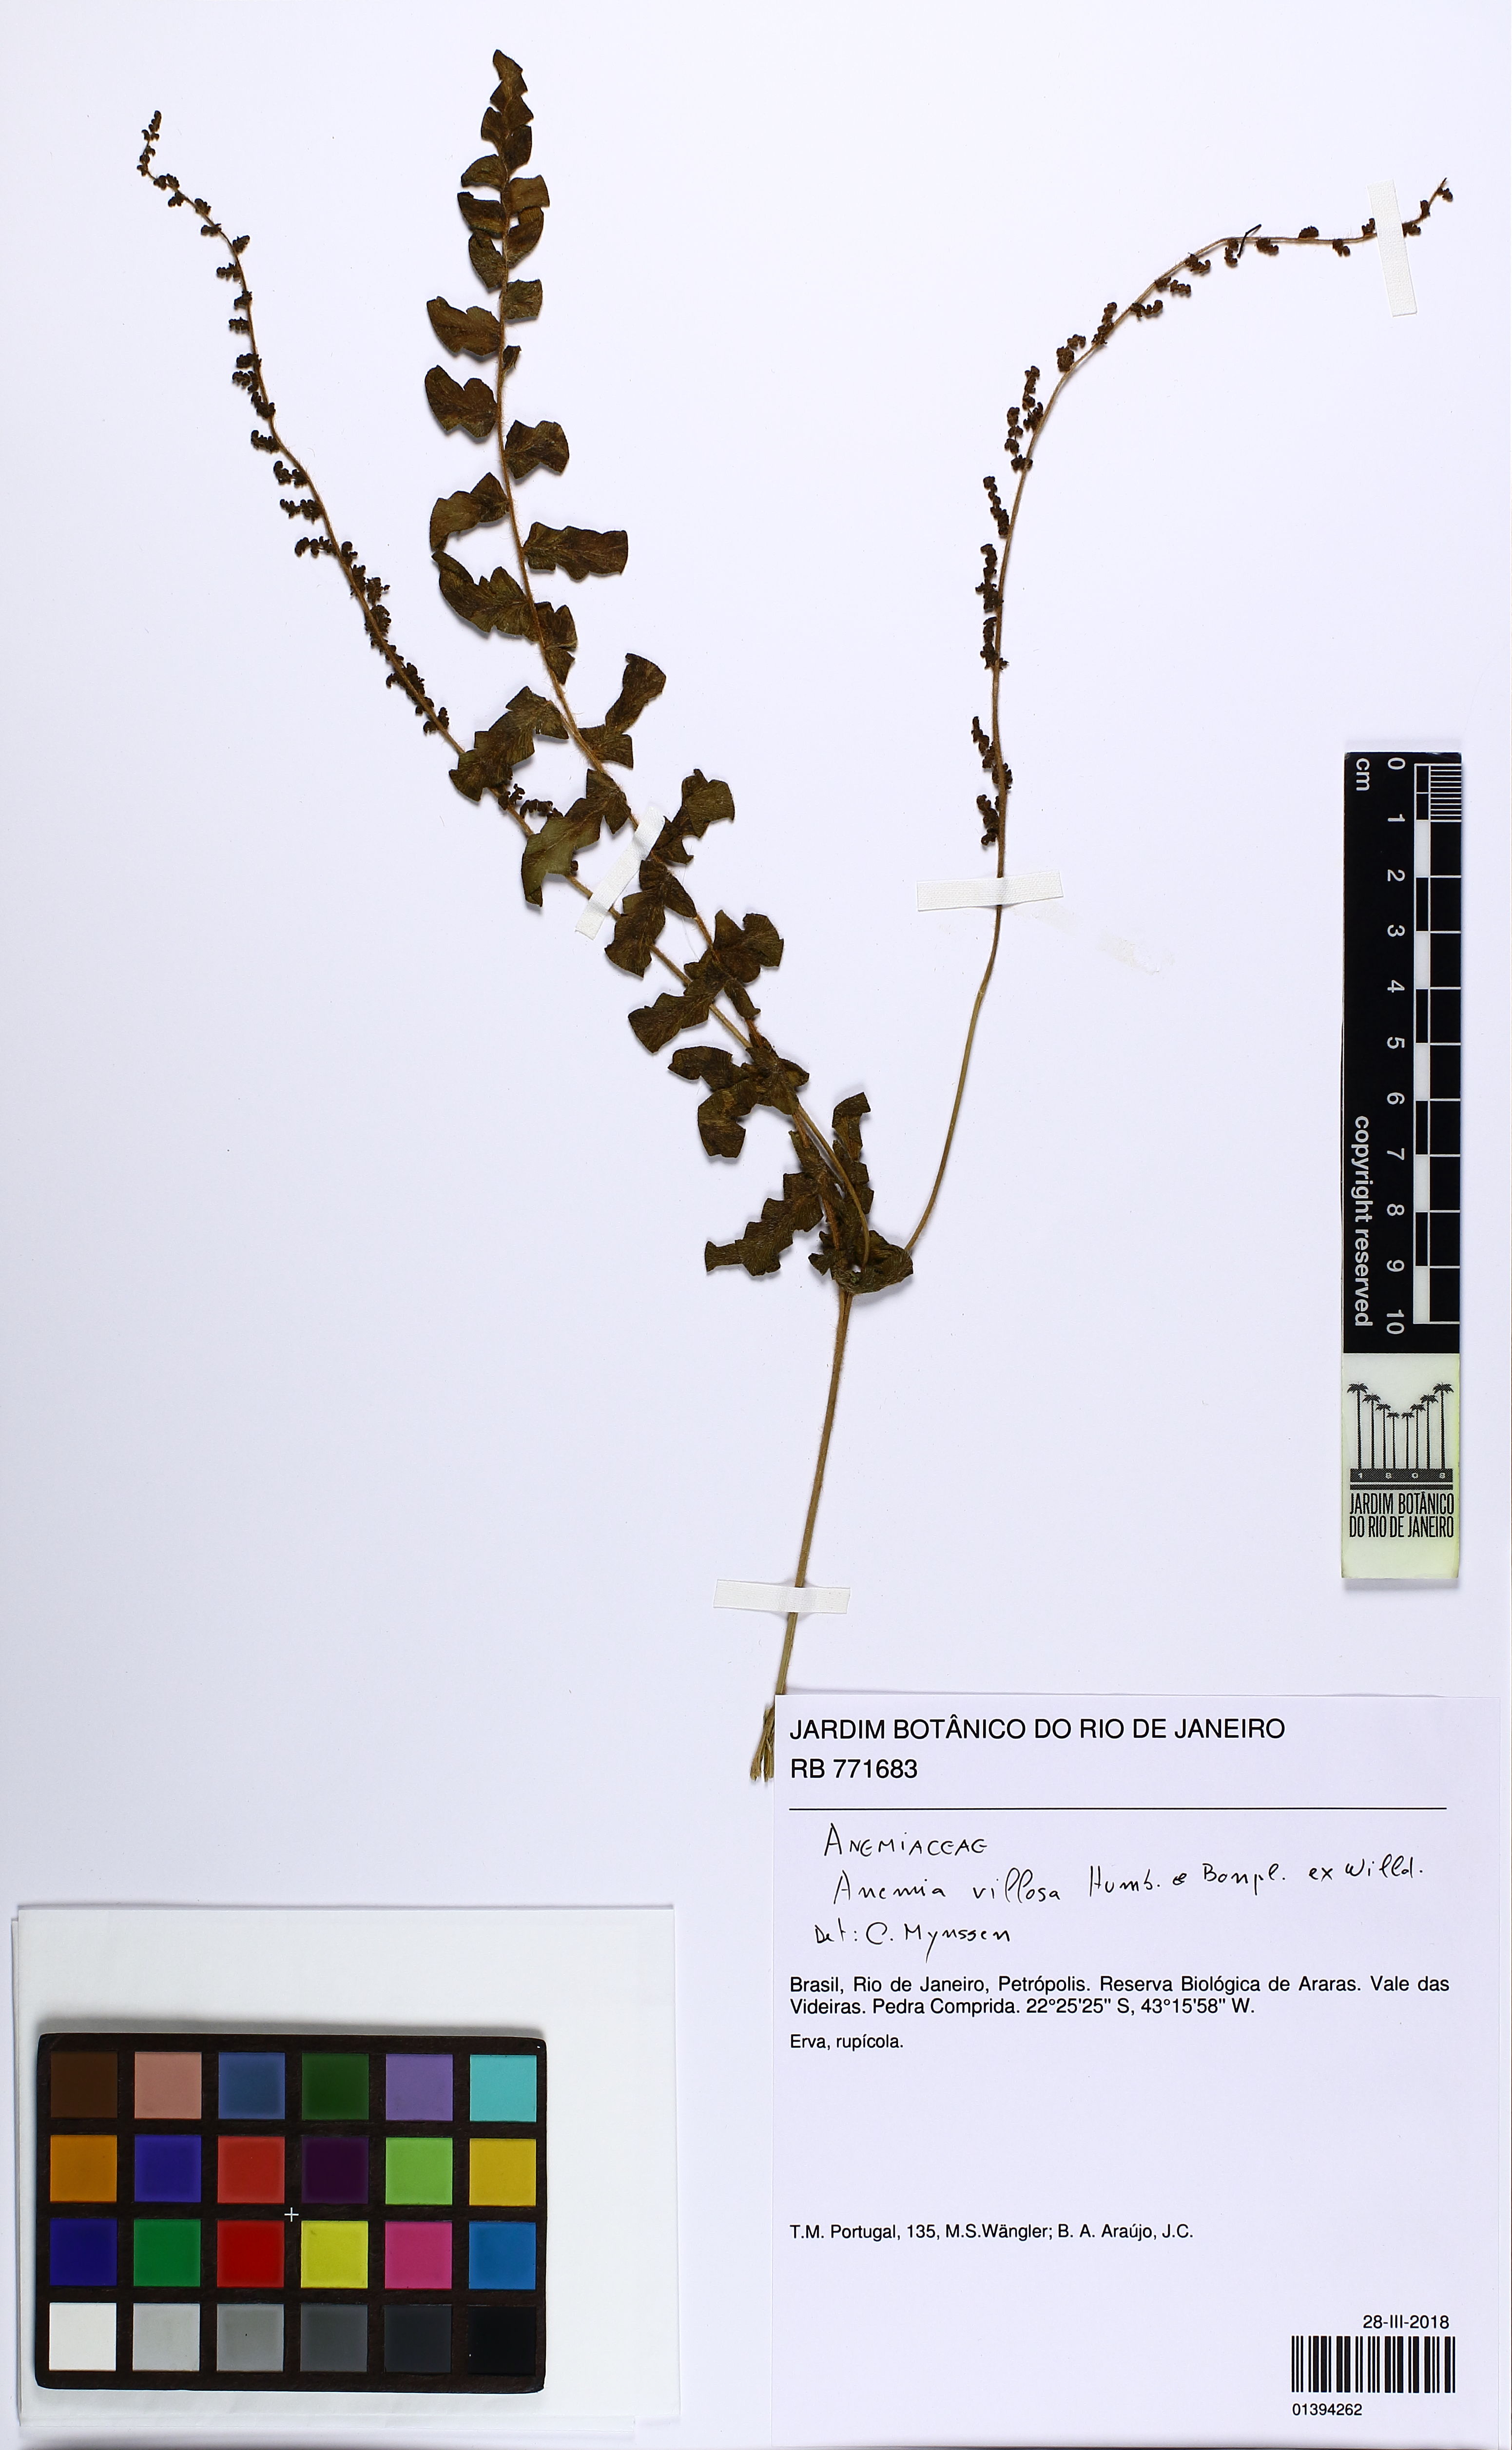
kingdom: Plantae
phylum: Tracheophyta
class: Polypodiopsida
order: Schizaeales
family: Anemiaceae
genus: Anemia
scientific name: Anemia villosa
